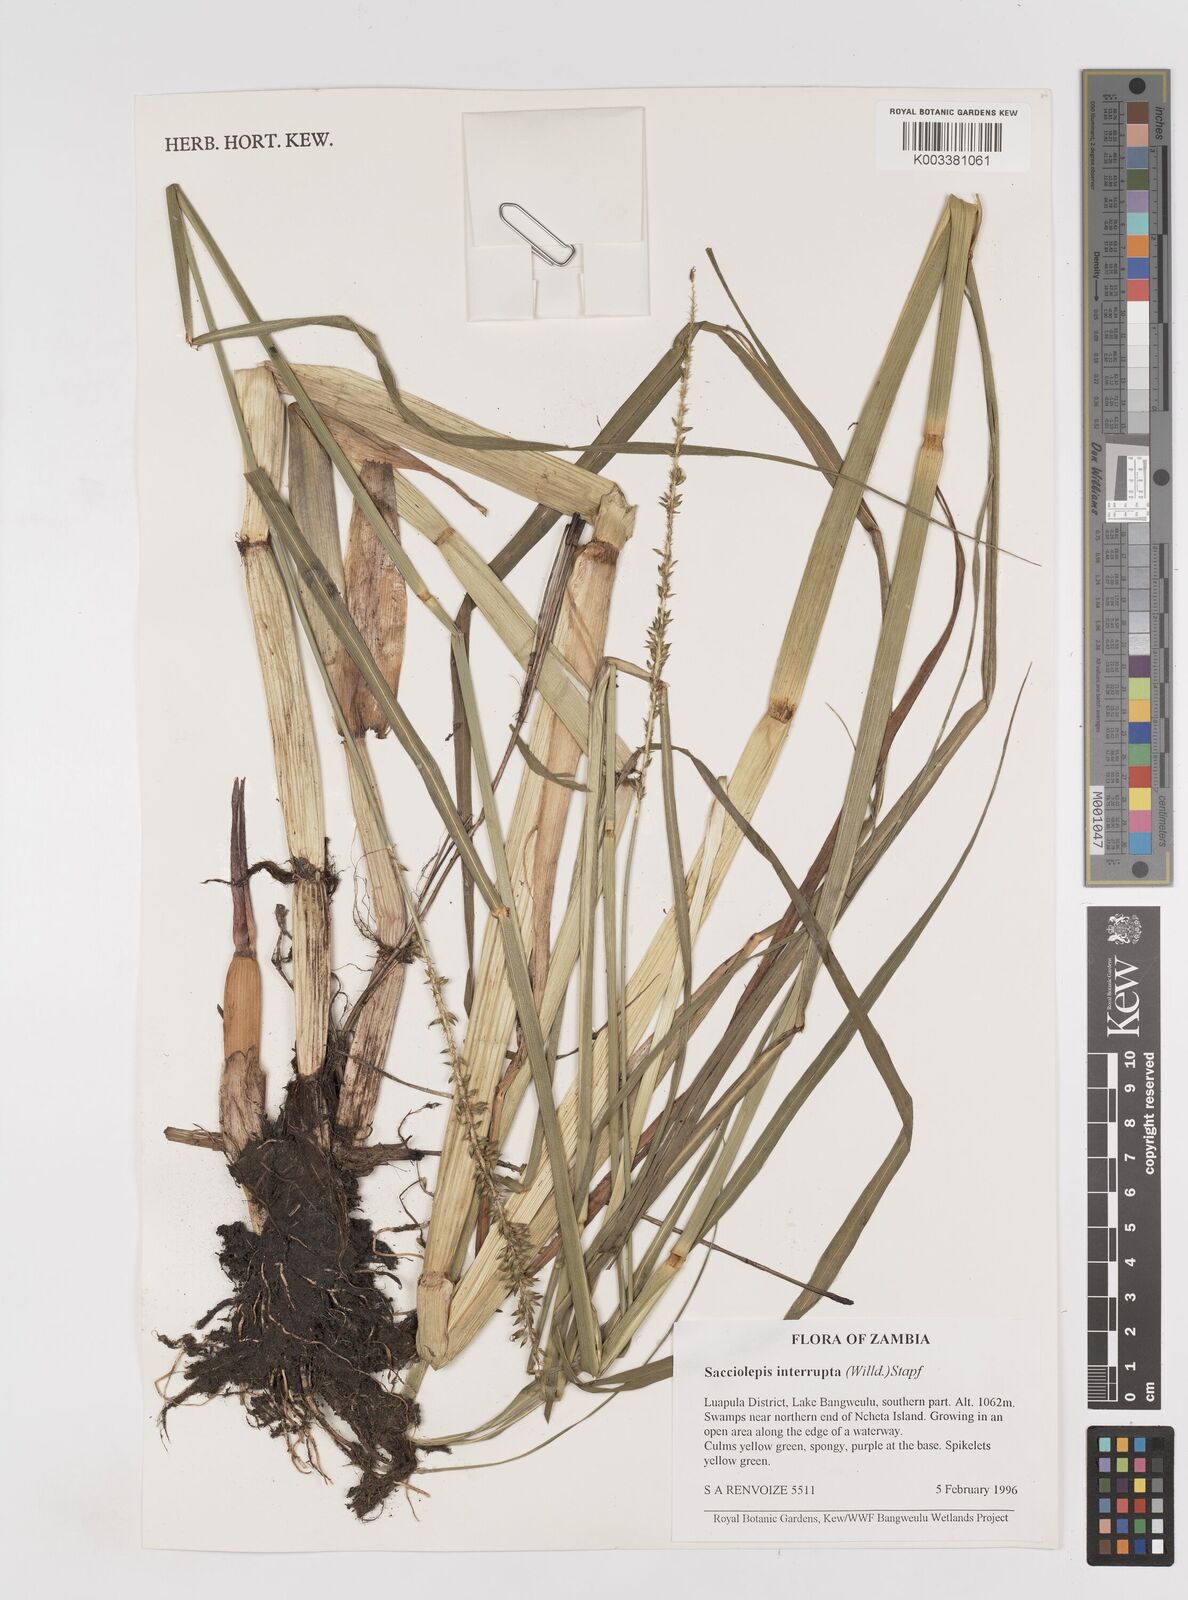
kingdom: Plantae
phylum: Tracheophyta
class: Liliopsida
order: Poales
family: Poaceae
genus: Sacciolepis
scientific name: Sacciolepis interrupta
